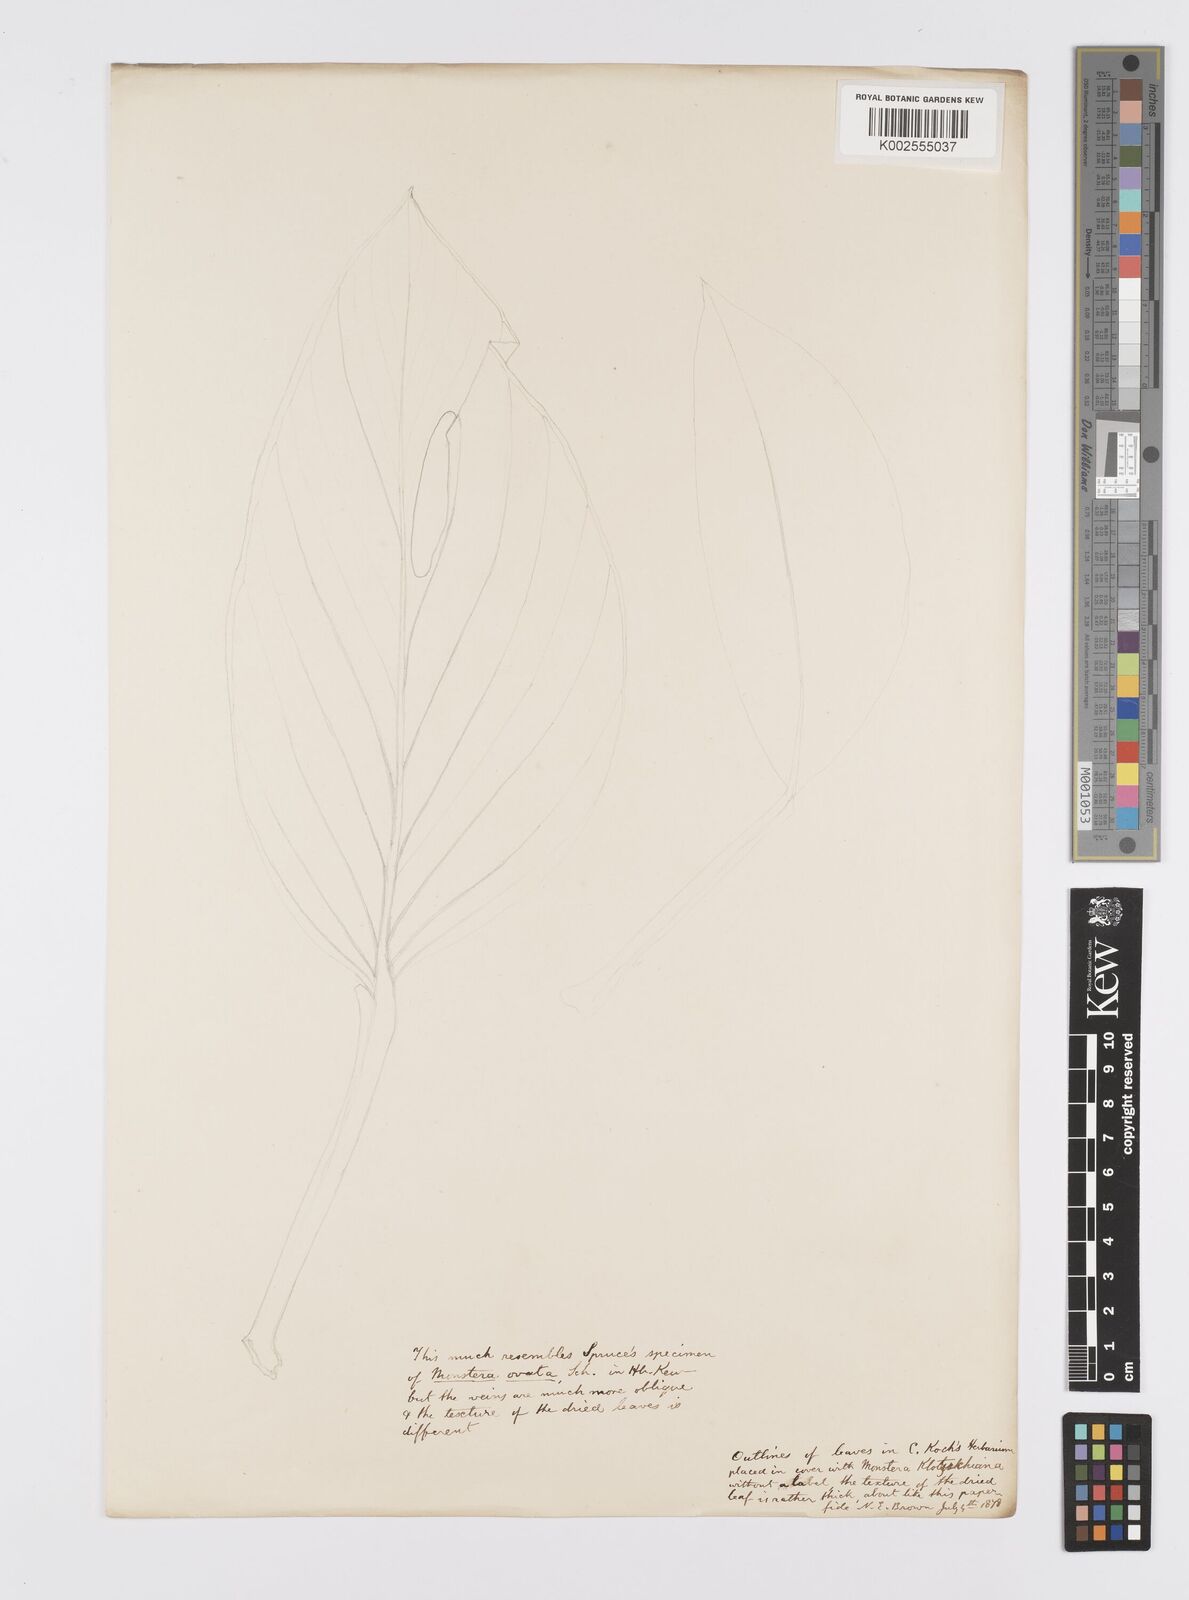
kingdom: Plantae
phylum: Tracheophyta
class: Liliopsida
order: Alismatales
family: Araceae
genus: Monstera
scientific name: Monstera
